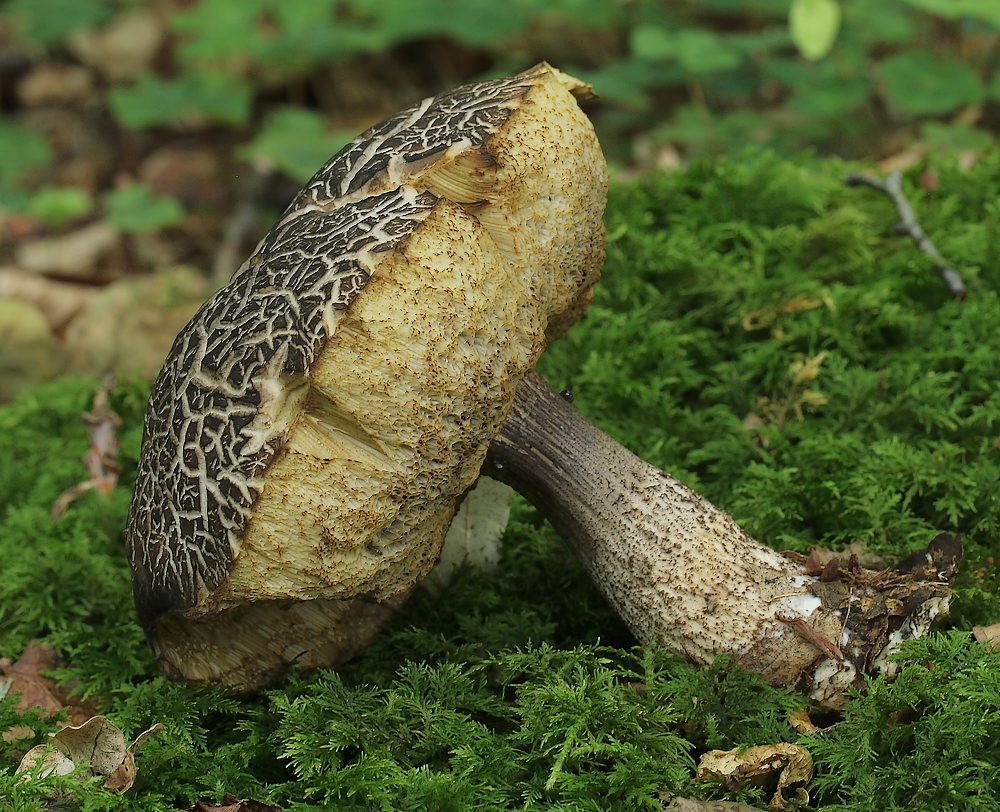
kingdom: Fungi
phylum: Basidiomycota
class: Agaricomycetes
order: Boletales
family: Boletaceae
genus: Leccinellum
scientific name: Leccinellum pseudoscabrum
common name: avnbøg-skælrørhat
